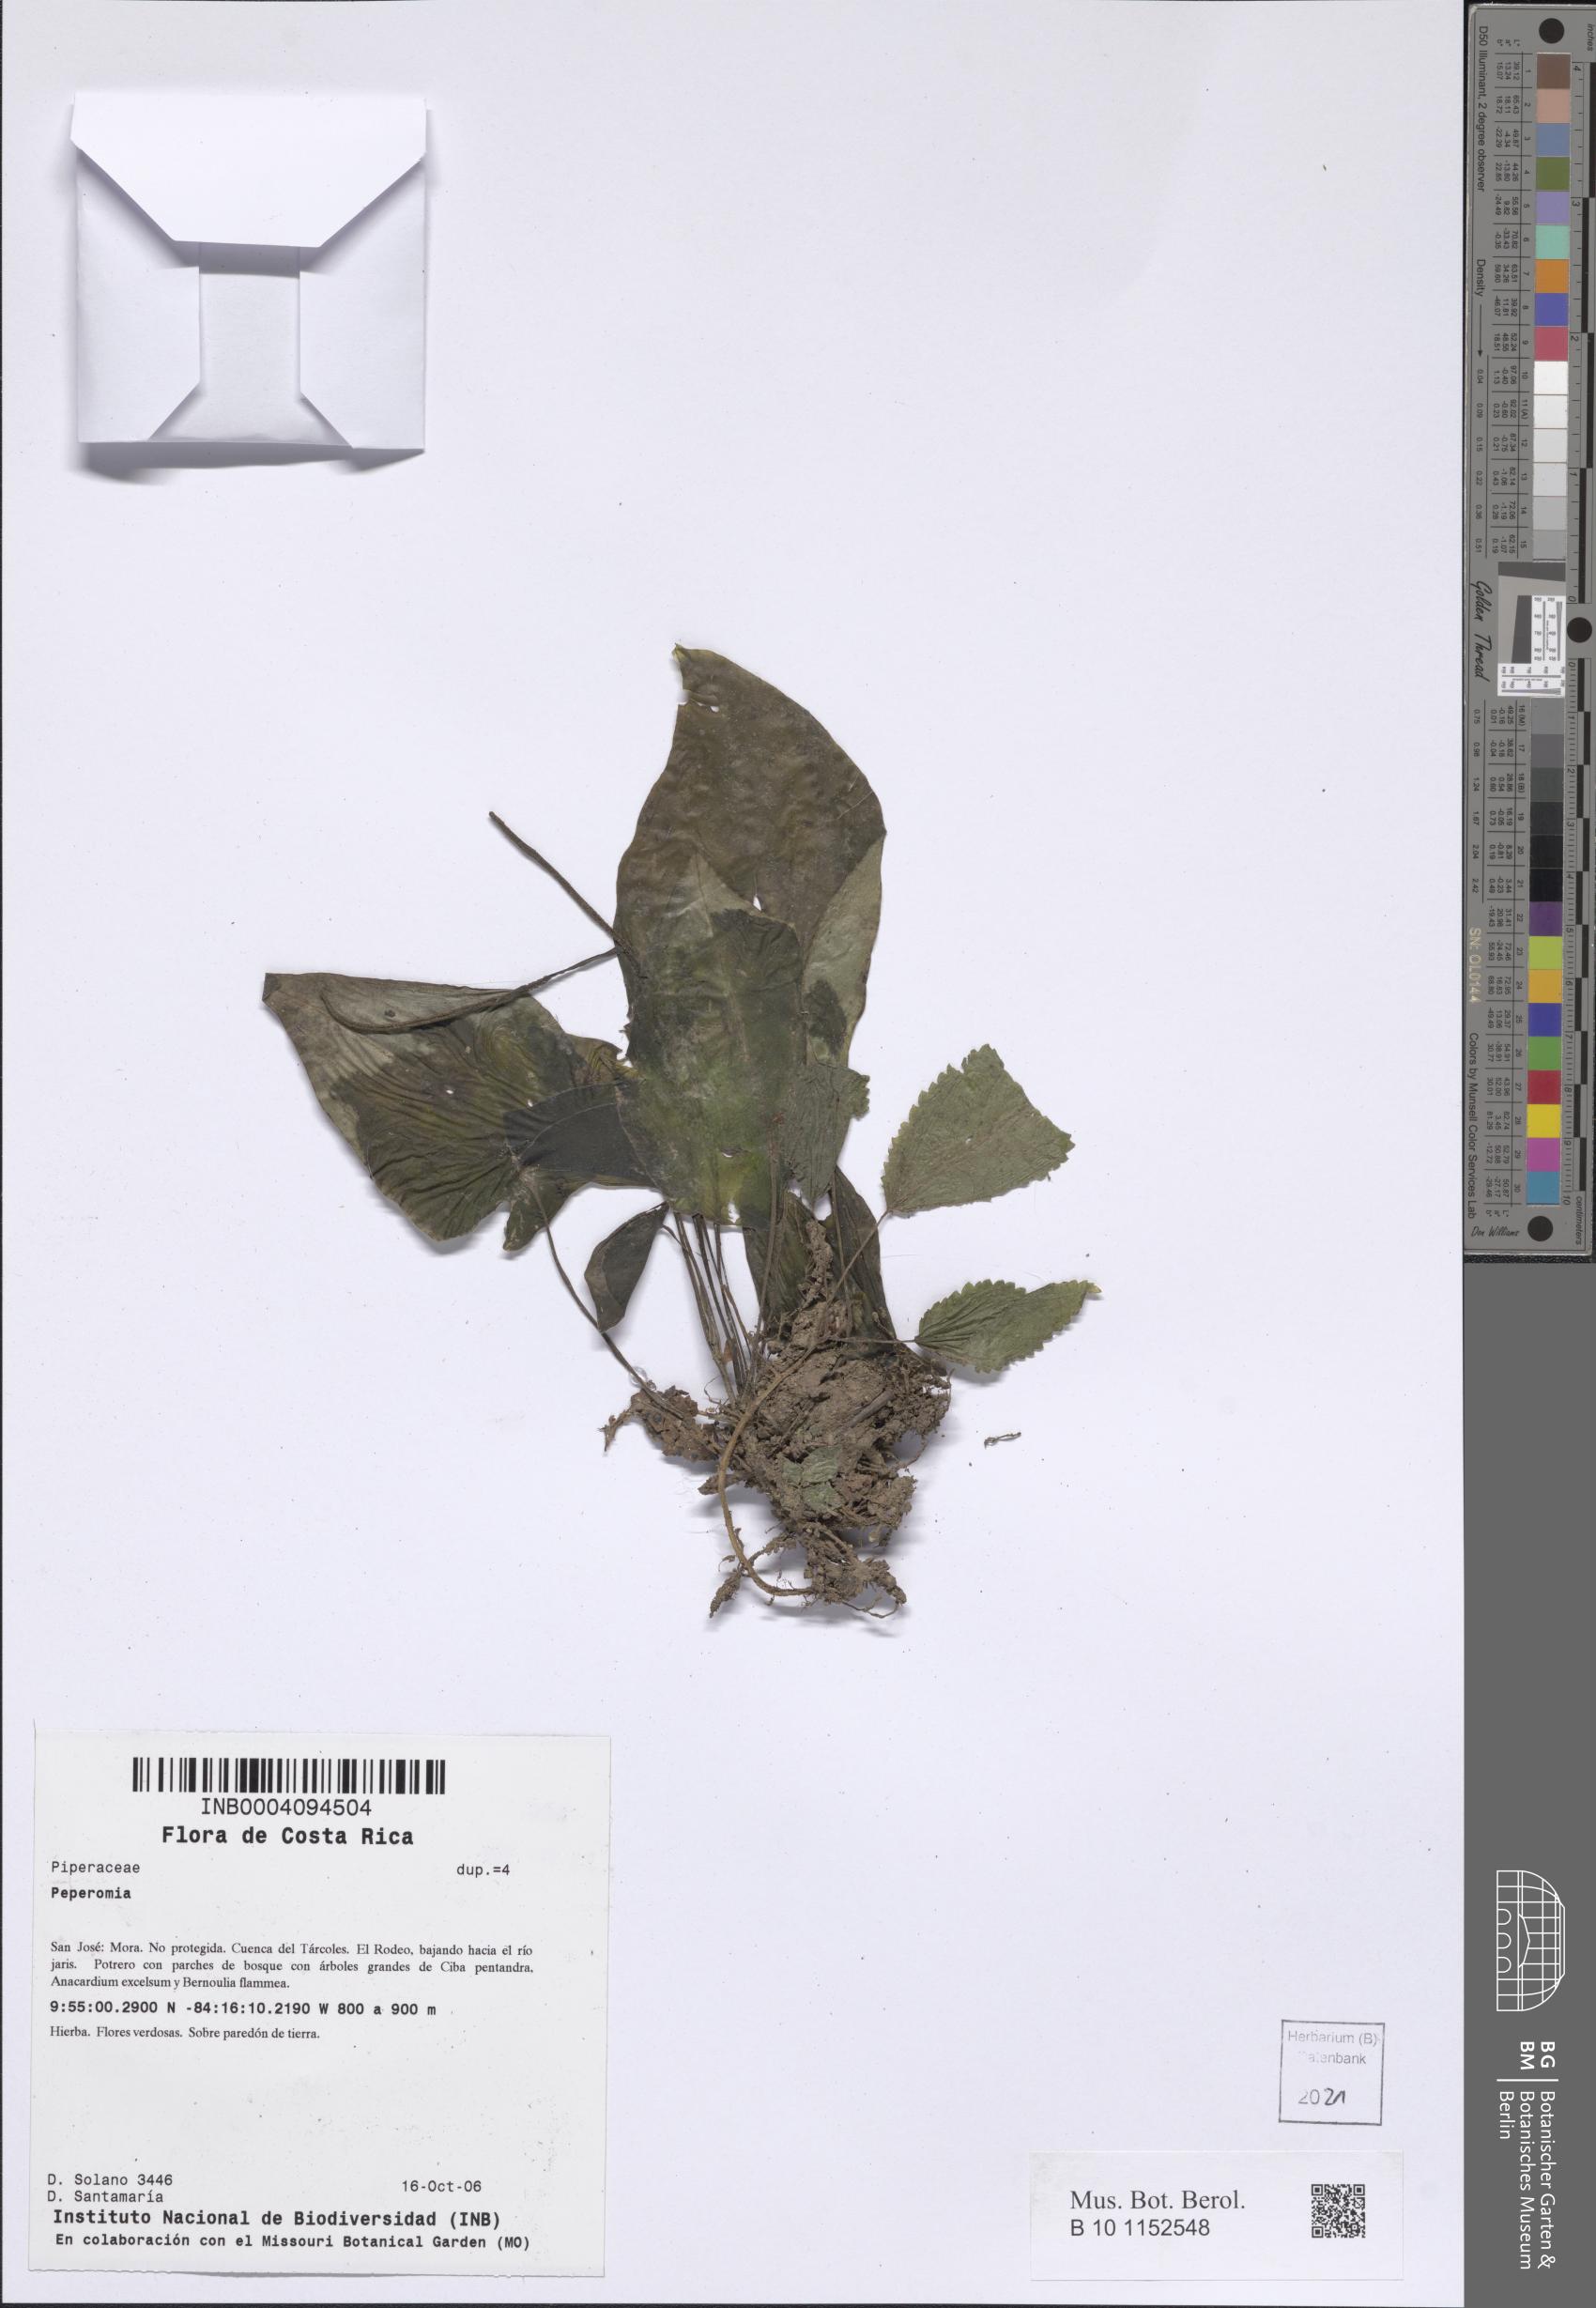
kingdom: Plantae
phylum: Tracheophyta
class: Magnoliopsida
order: Piperales
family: Piperaceae
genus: Peperomia
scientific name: Peperomia
